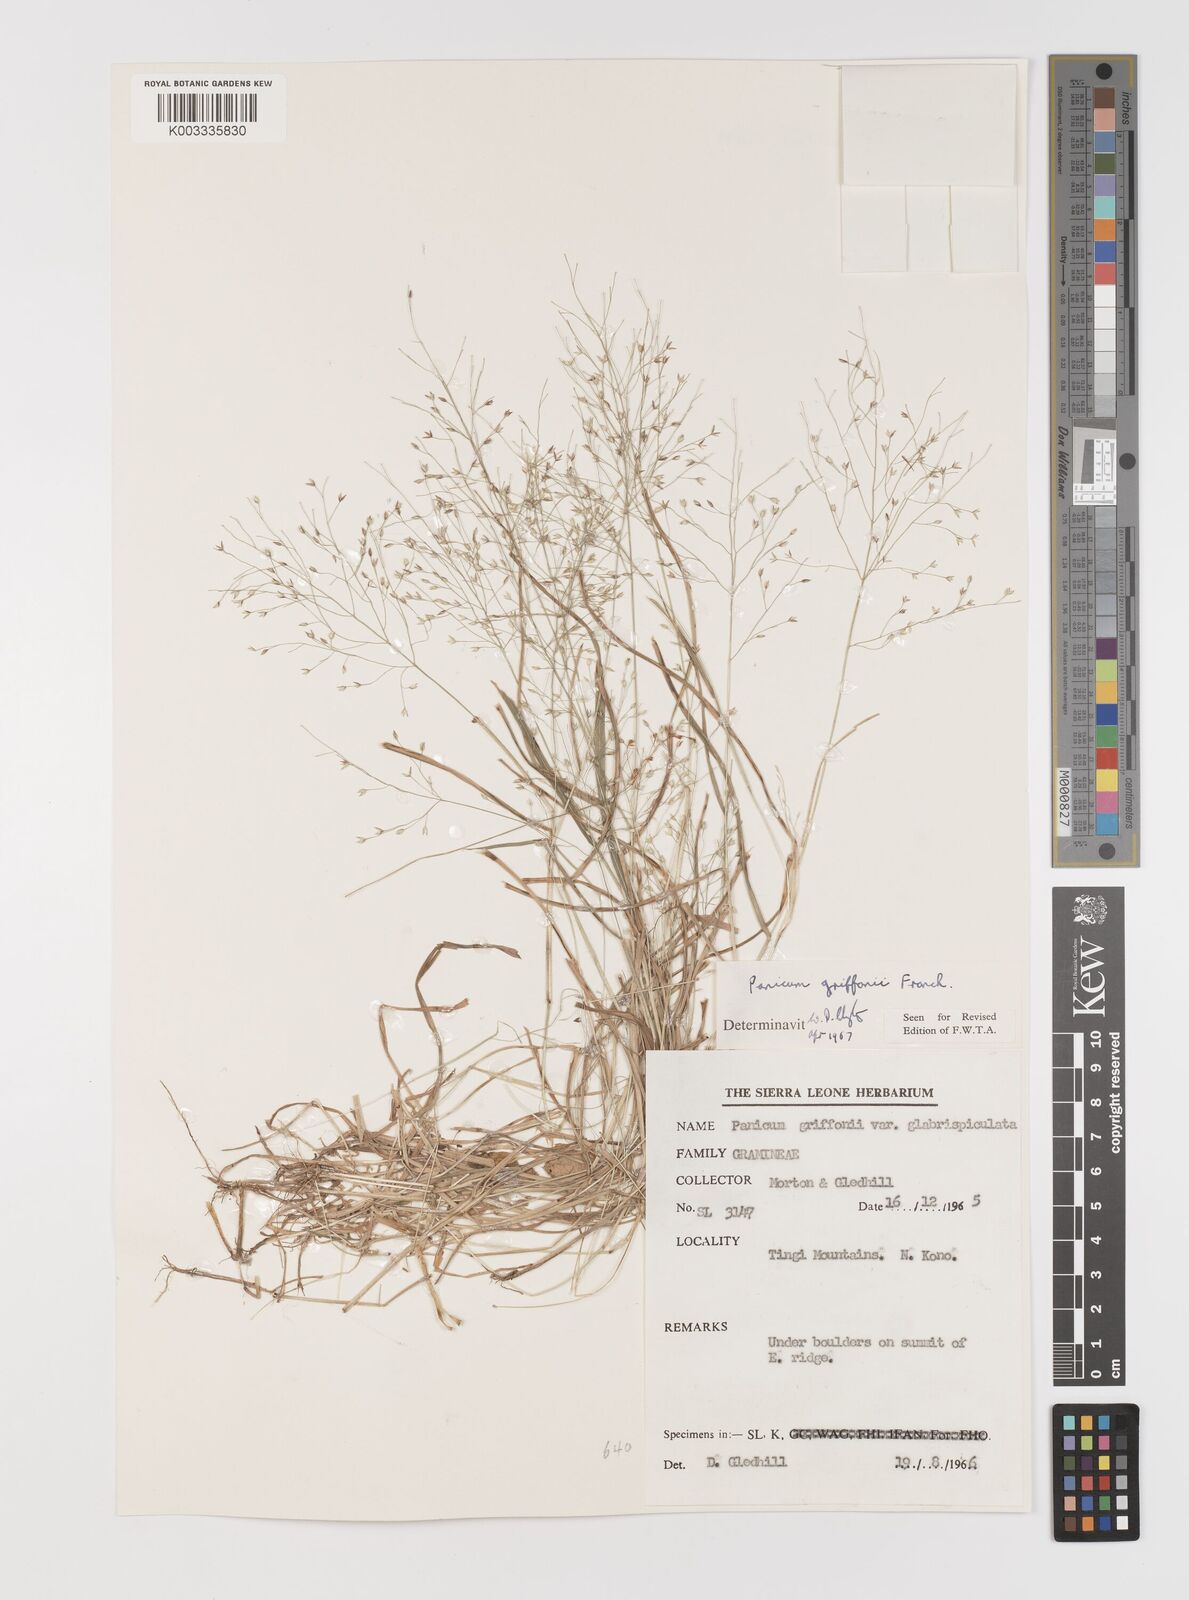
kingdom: Plantae
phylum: Tracheophyta
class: Liliopsida
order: Poales
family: Poaceae
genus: Panicum
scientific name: Panicum griffonii
